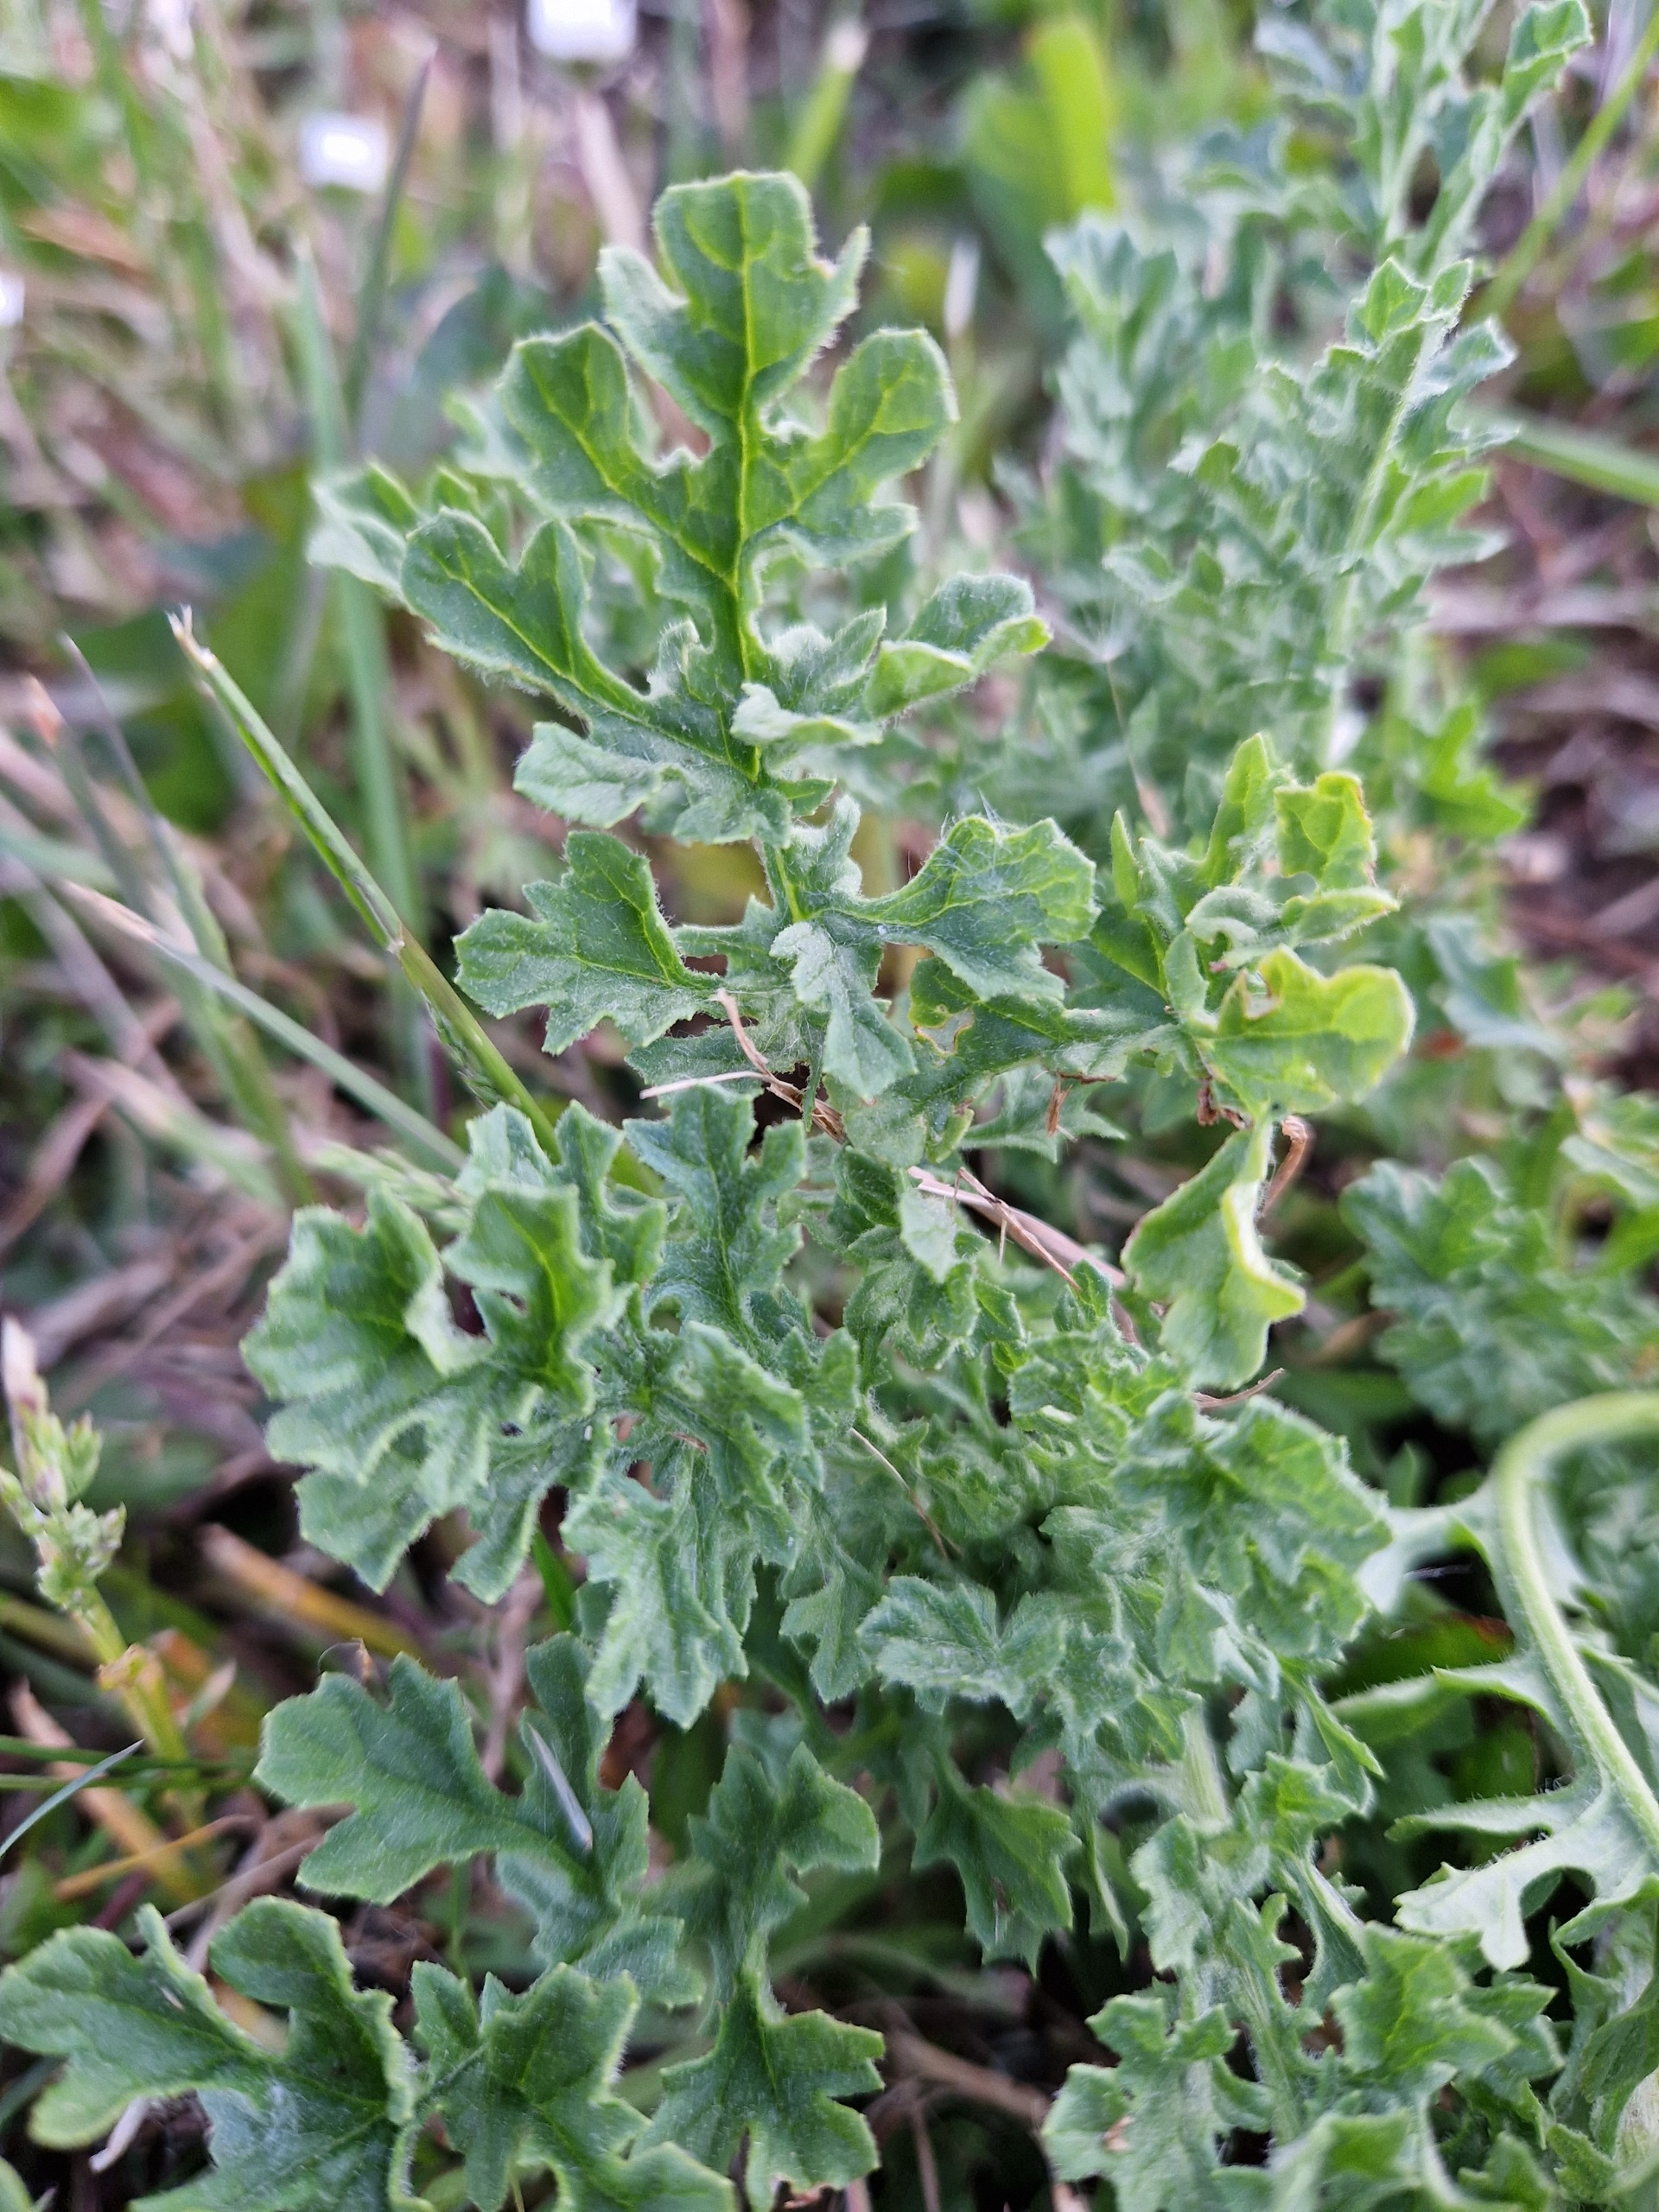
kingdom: Plantae
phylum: Tracheophyta
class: Magnoliopsida
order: Asterales
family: Asteraceae
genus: Jacobaea
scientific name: Jacobaea vulgaris
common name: Eng-brandbæger
